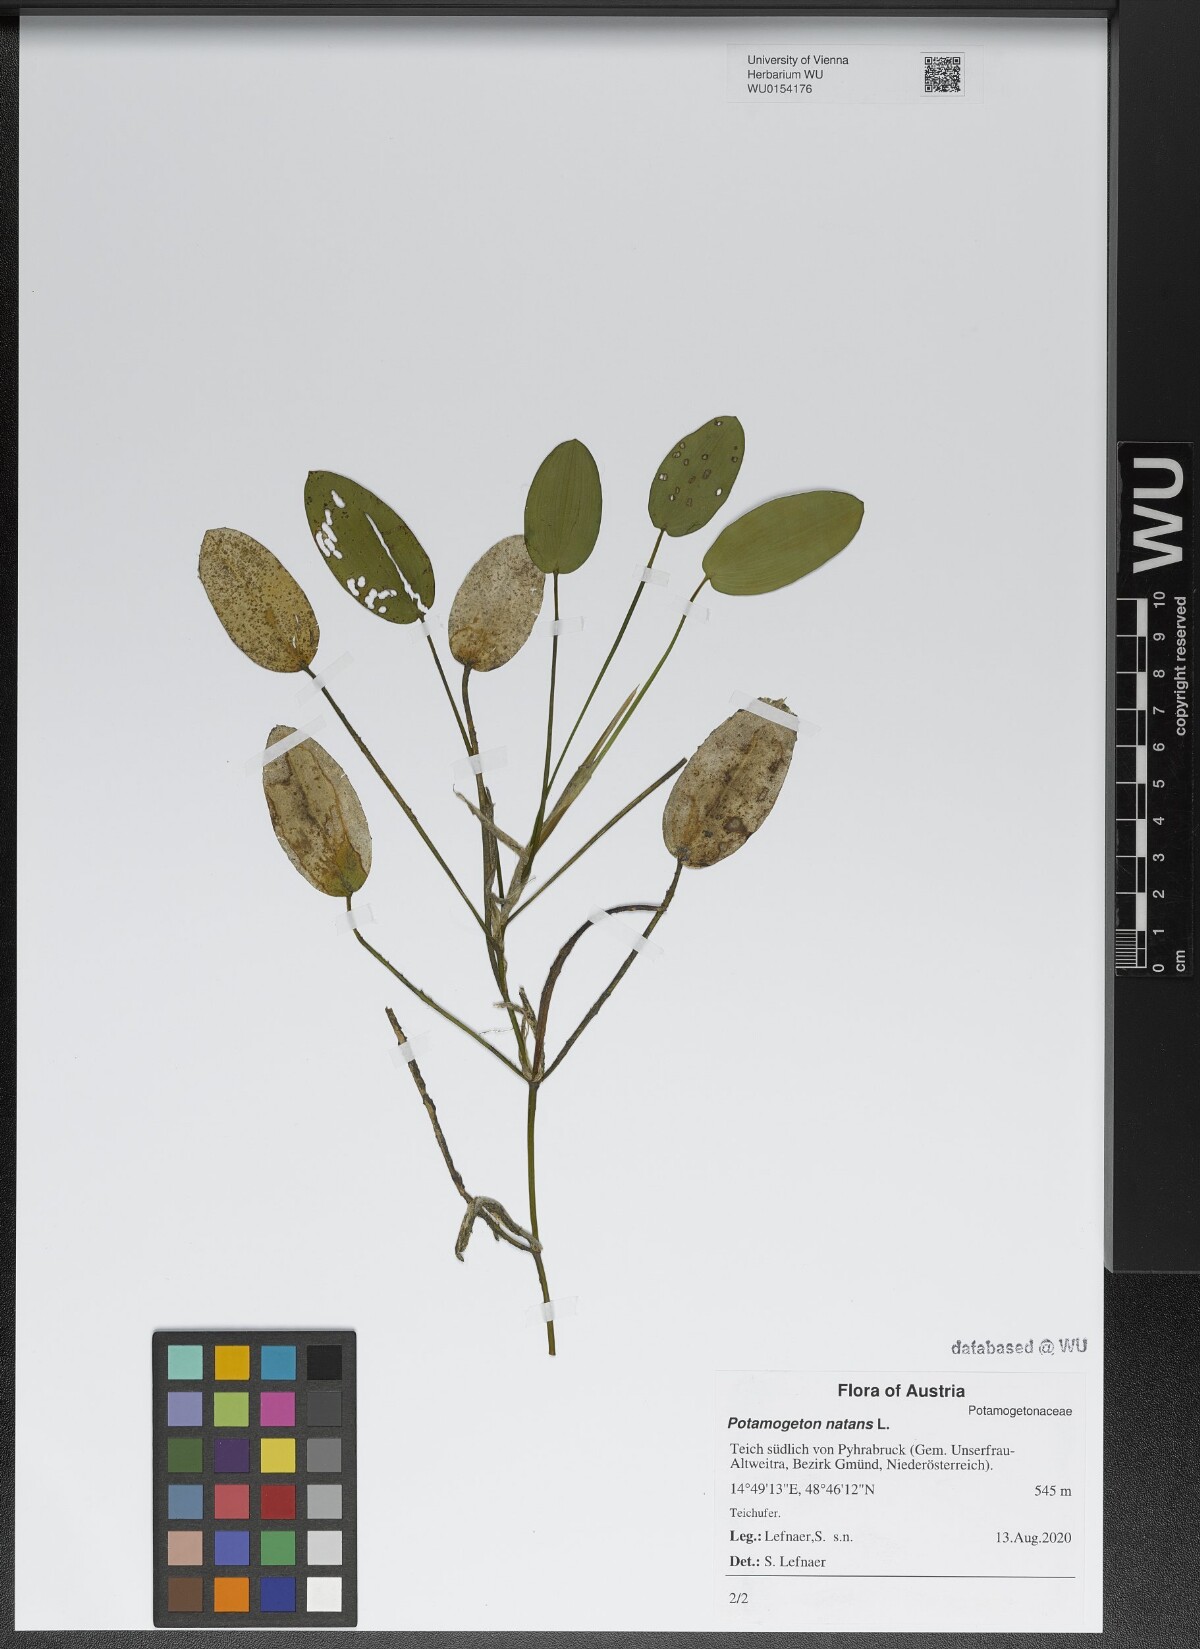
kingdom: Plantae
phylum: Tracheophyta
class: Liliopsida
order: Alismatales
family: Potamogetonaceae
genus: Potamogeton
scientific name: Potamogeton natans
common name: Broad-leaved pondweed
